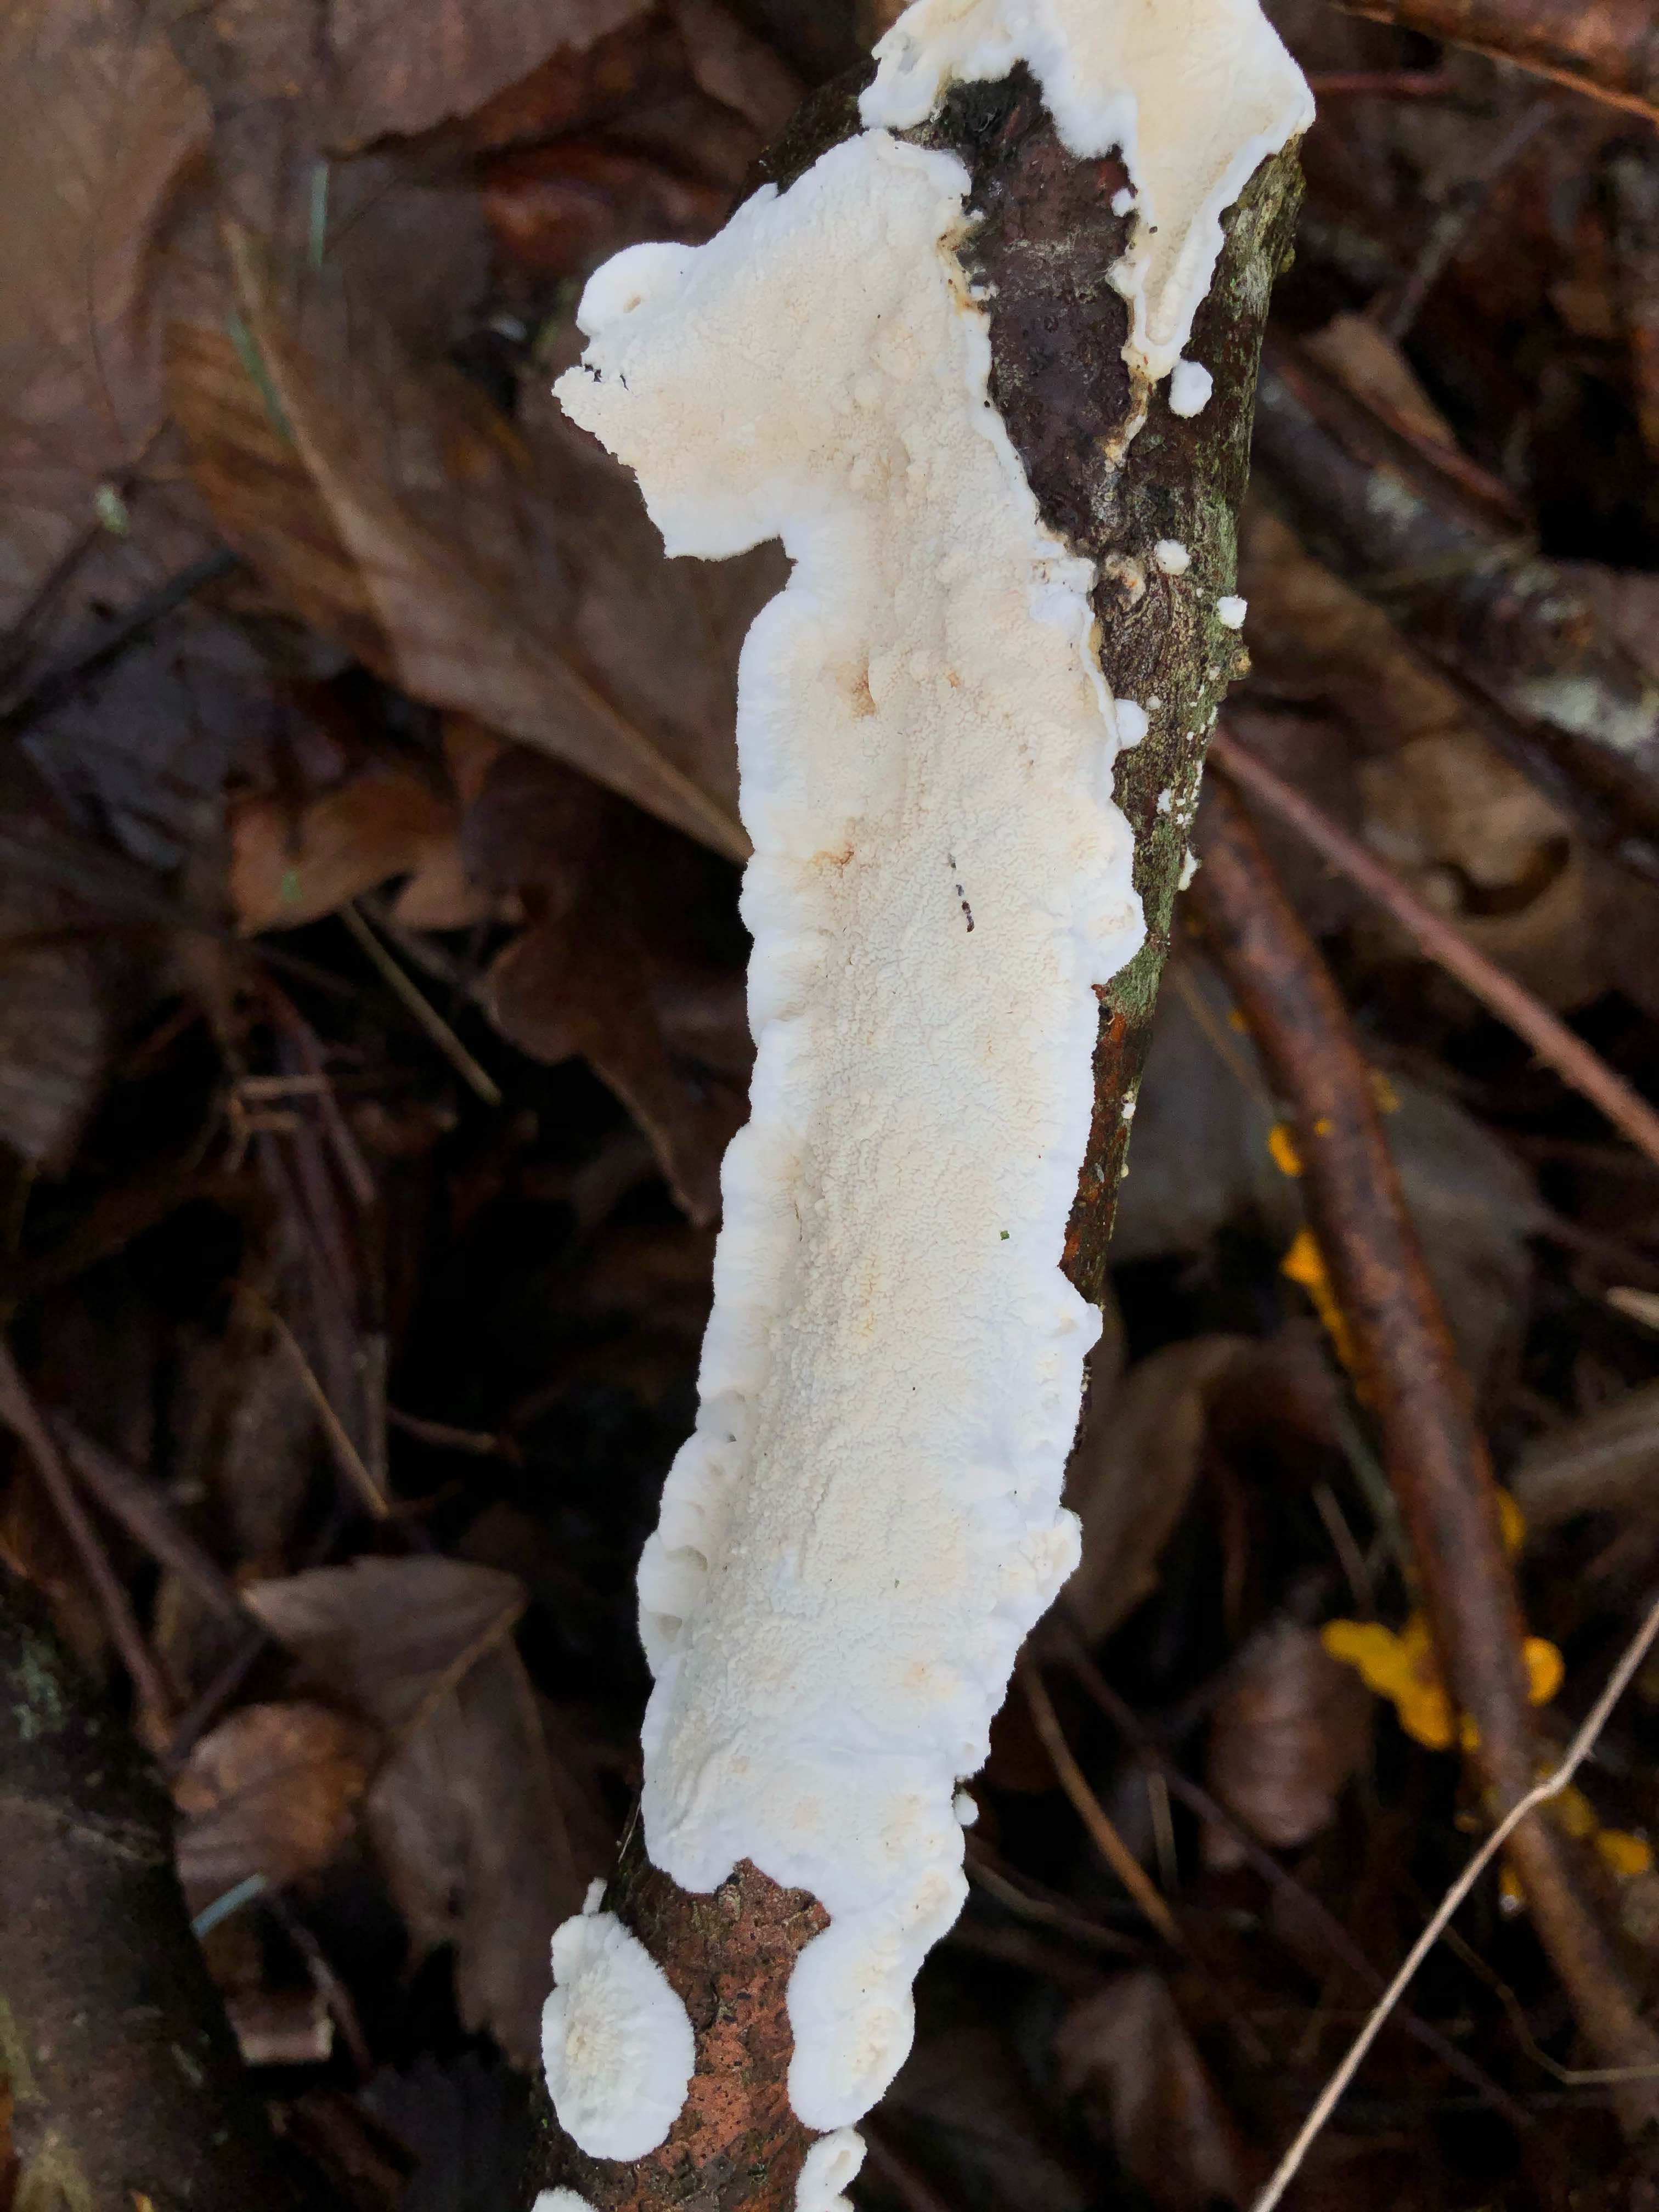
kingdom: Fungi
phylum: Basidiomycota
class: Agaricomycetes
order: Polyporales
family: Irpicaceae
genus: Byssomerulius
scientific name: Byssomerulius corium
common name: læder-åresvamp
